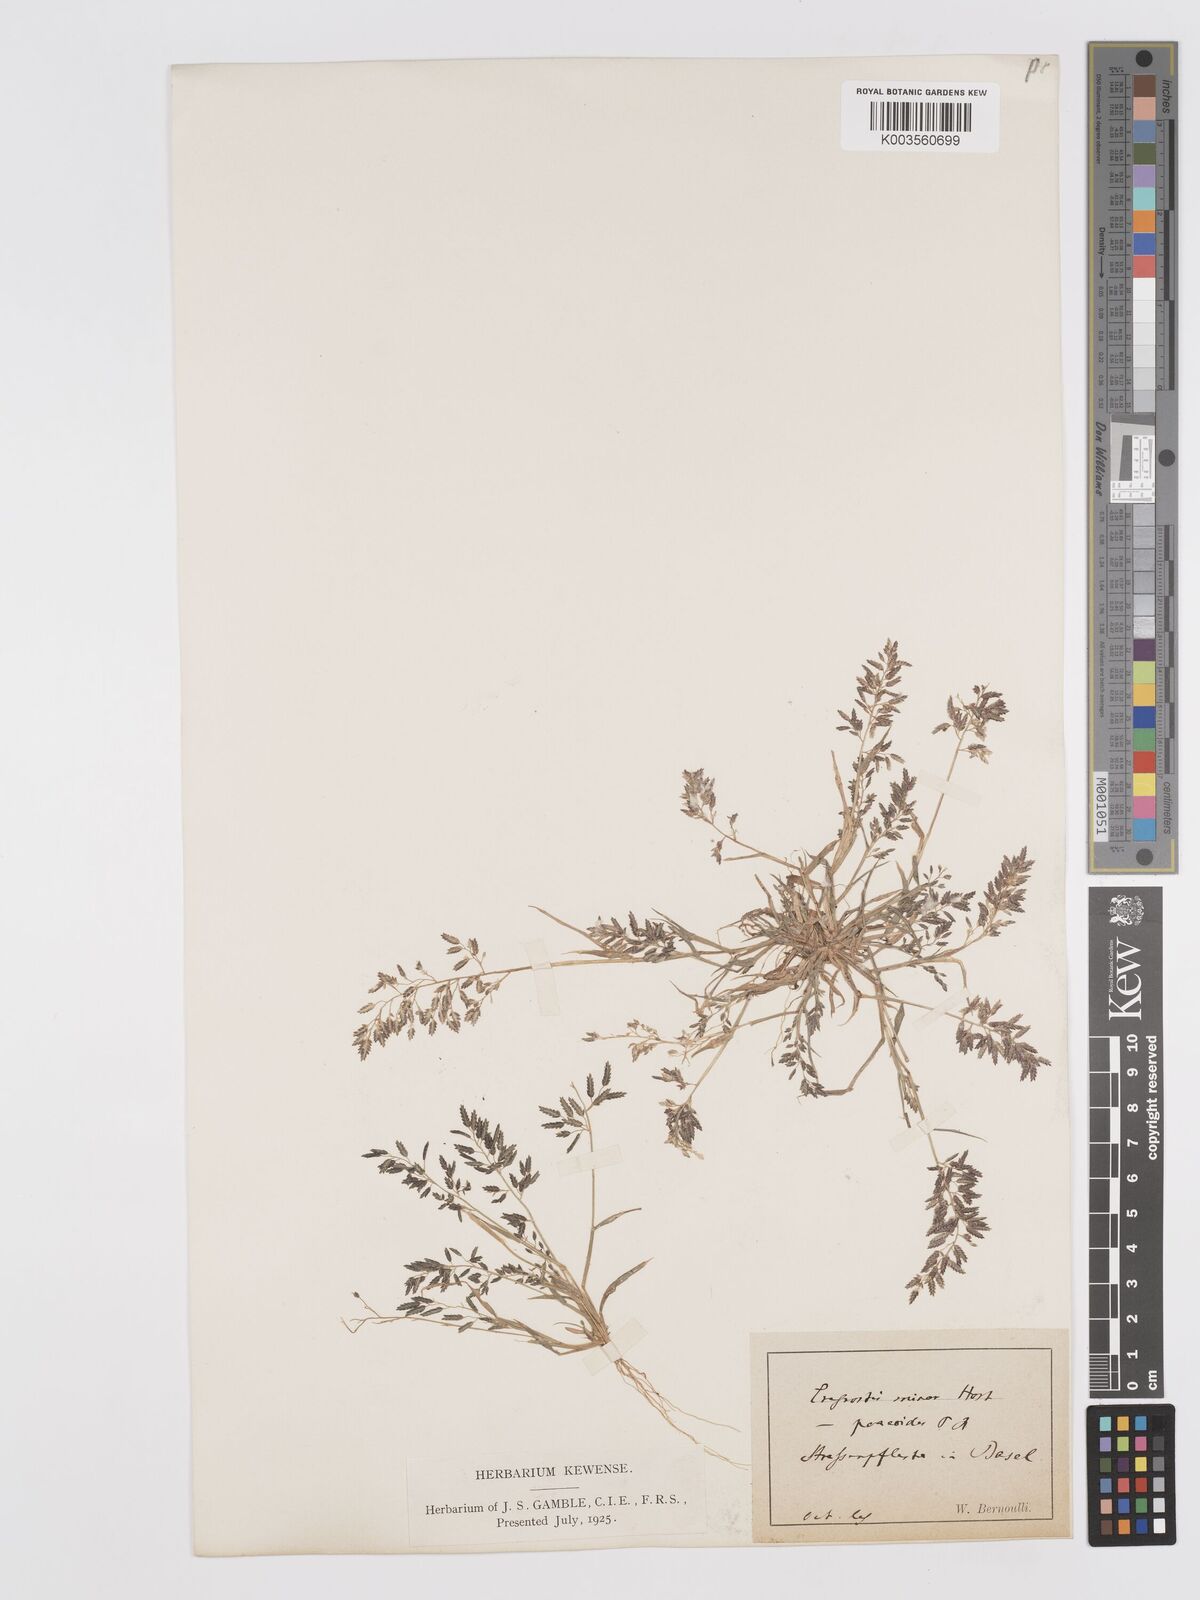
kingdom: Plantae
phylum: Tracheophyta
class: Liliopsida
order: Poales
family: Poaceae
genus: Eragrostis
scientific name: Eragrostis minor
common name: Small love-grass
